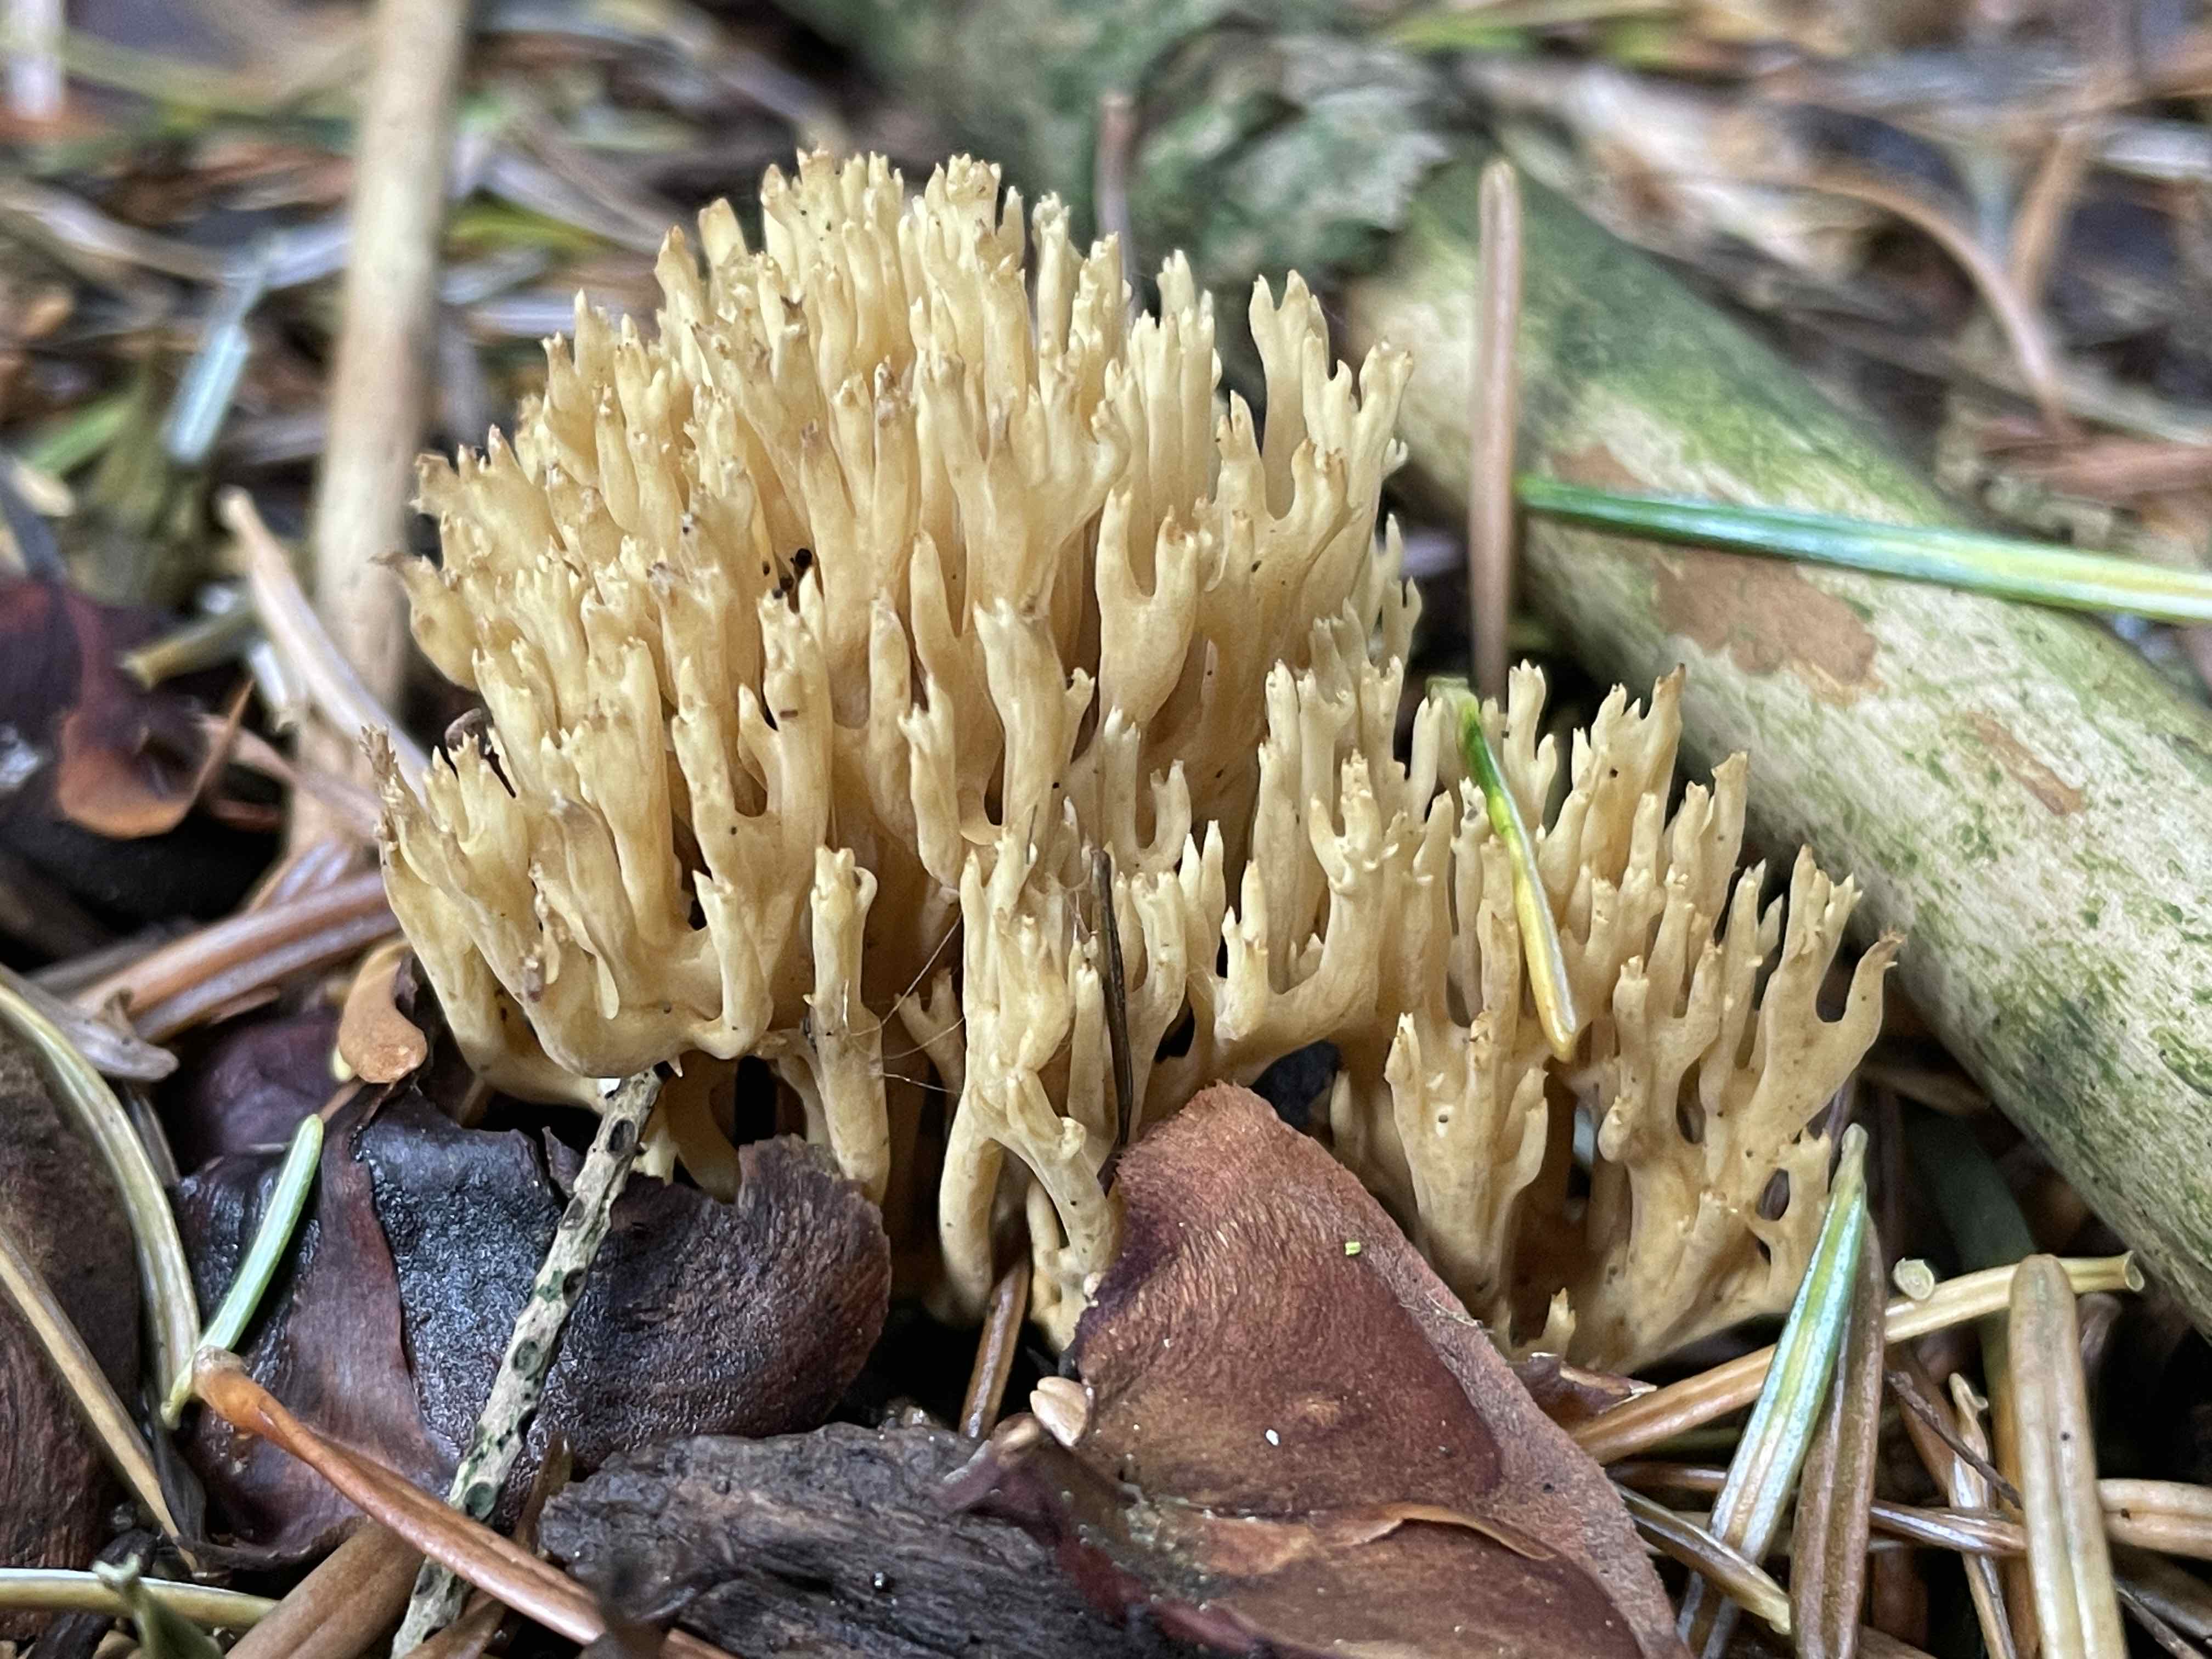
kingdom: Fungi
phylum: Basidiomycota
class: Agaricomycetes
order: Gomphales
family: Gomphaceae
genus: Phaeoclavulina
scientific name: Phaeoclavulina eumorpha
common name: gran-koralsvamp
